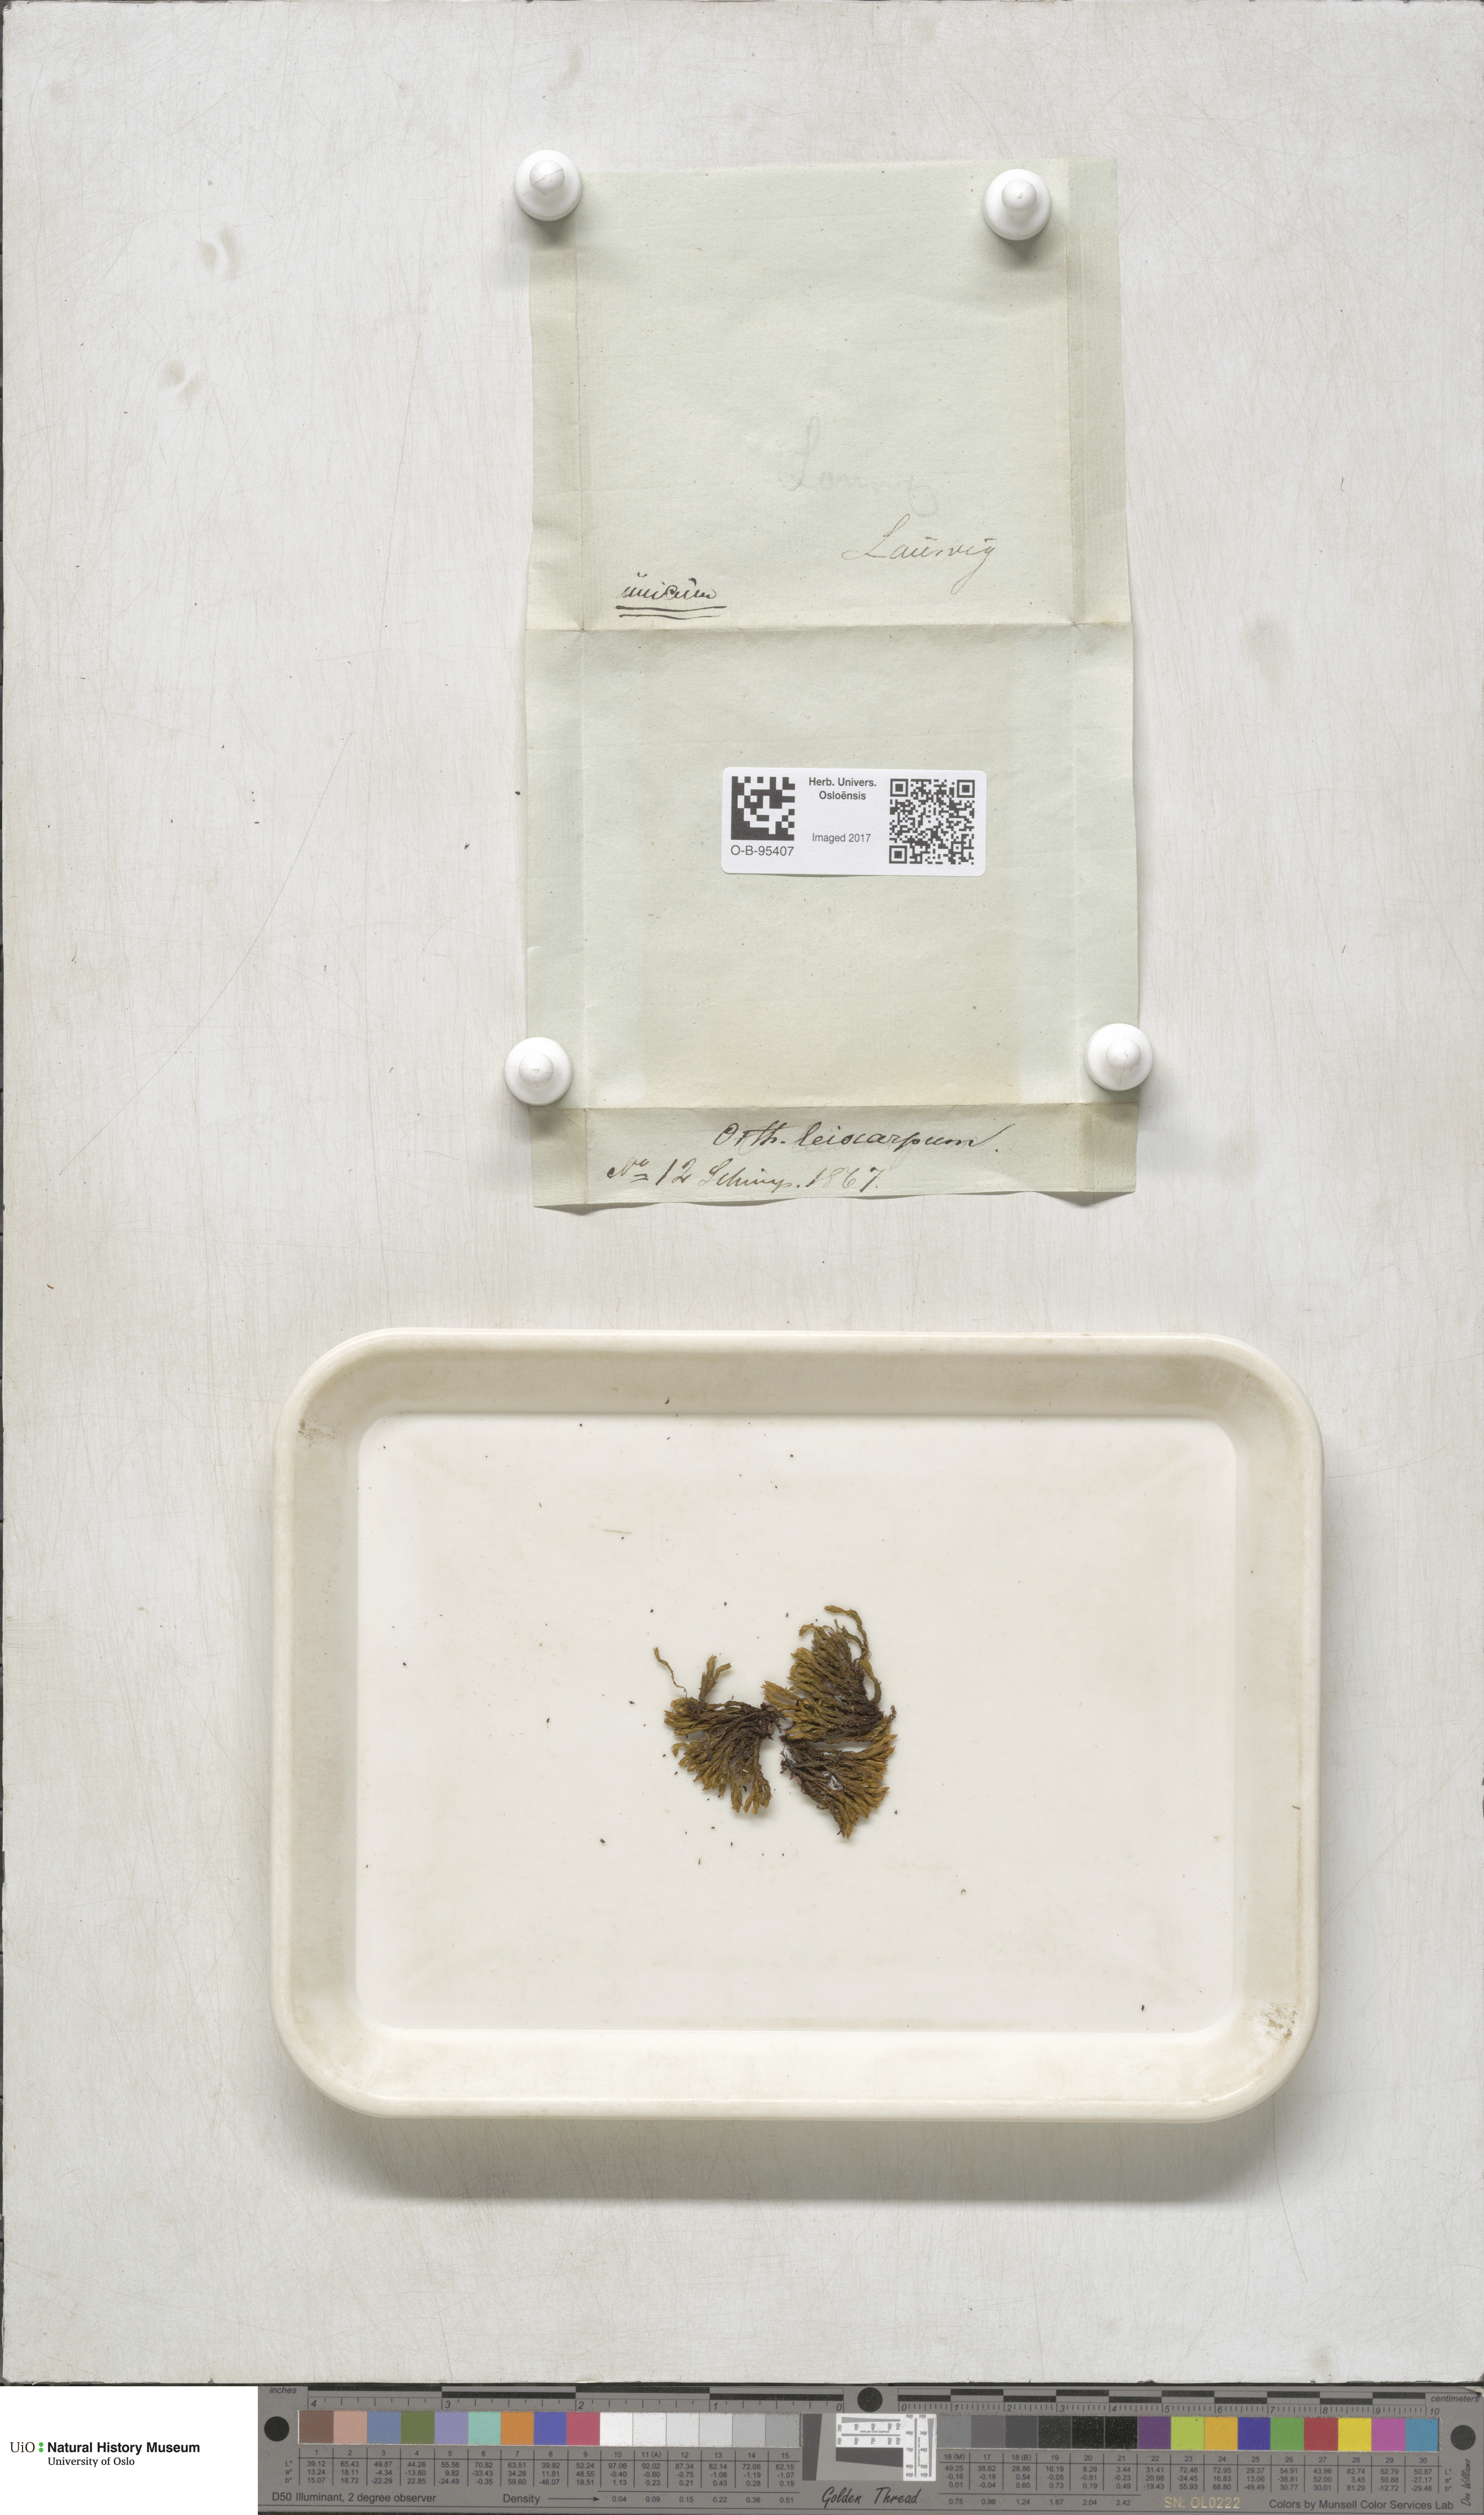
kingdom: Plantae
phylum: Bryophyta
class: Bryopsida
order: Orthotrichales
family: Orthotrichaceae
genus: Lewinskya
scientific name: Lewinskya striata
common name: Shaw's bristle-moss
